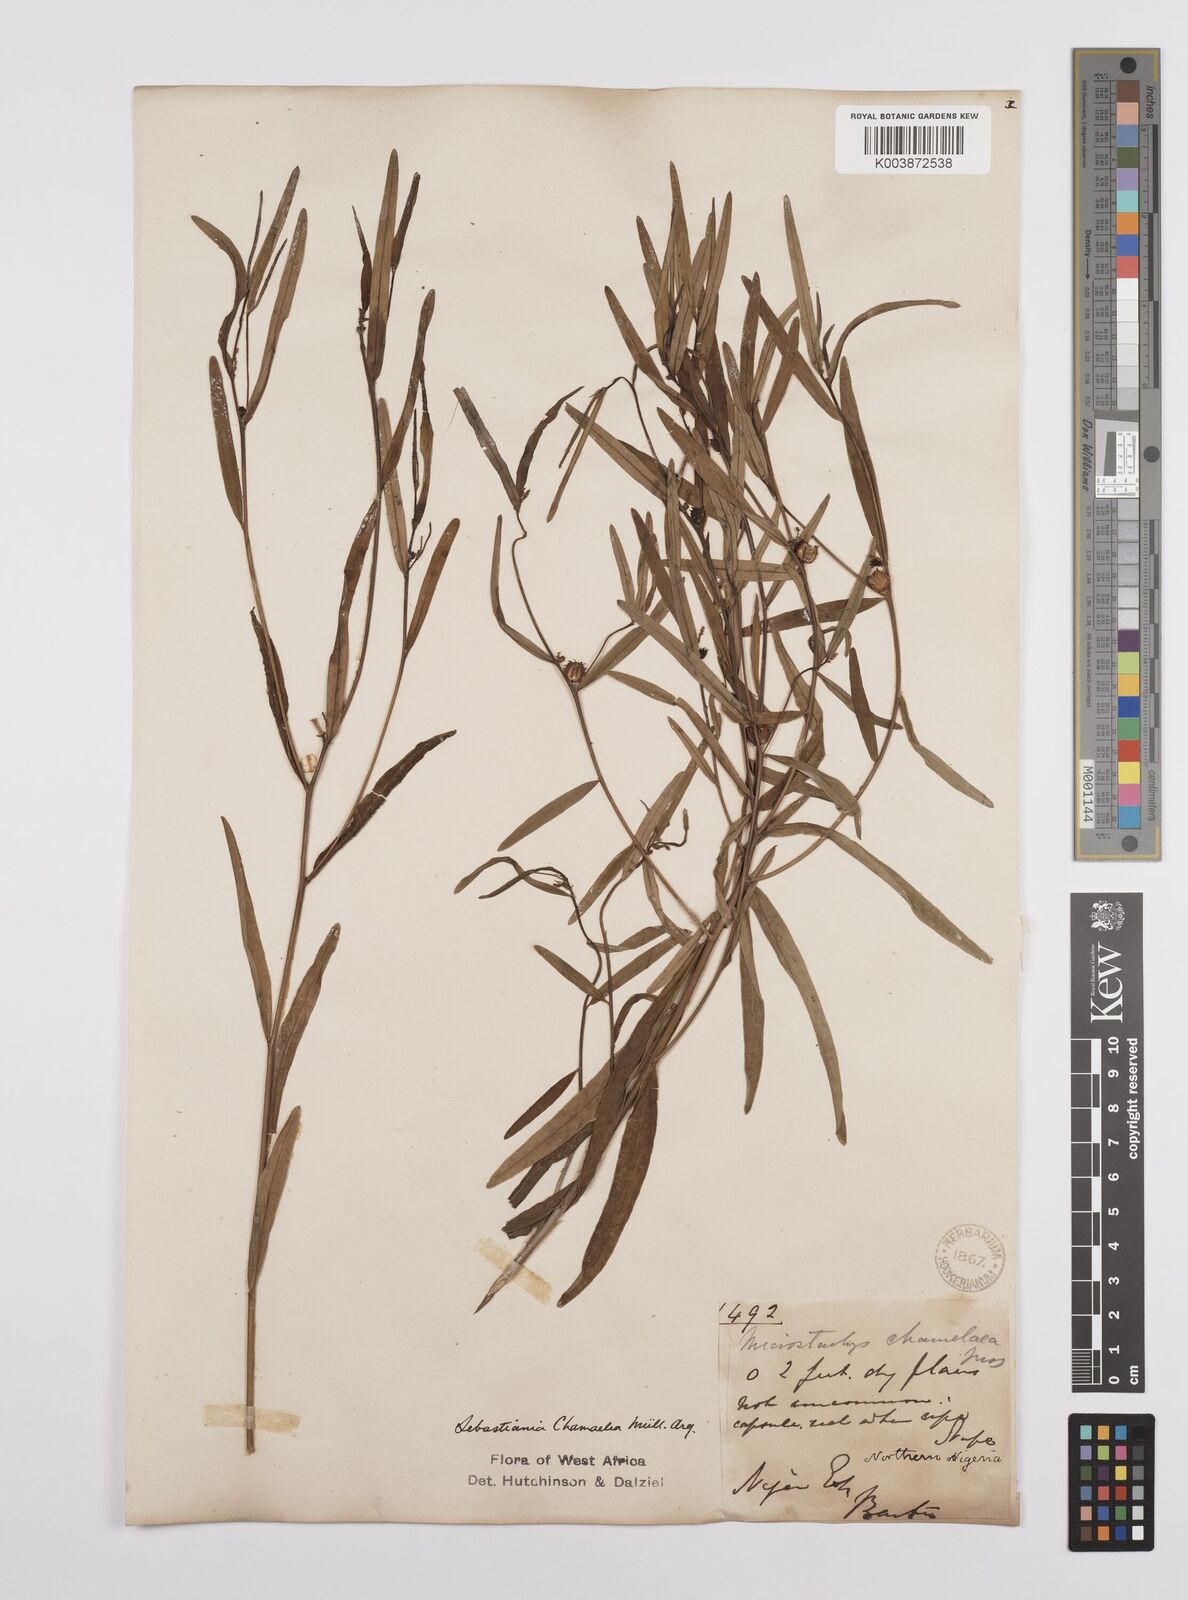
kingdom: Plantae
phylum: Tracheophyta
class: Magnoliopsida
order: Malpighiales
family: Euphorbiaceae
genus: Microstachys
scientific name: Microstachys chamaelea
